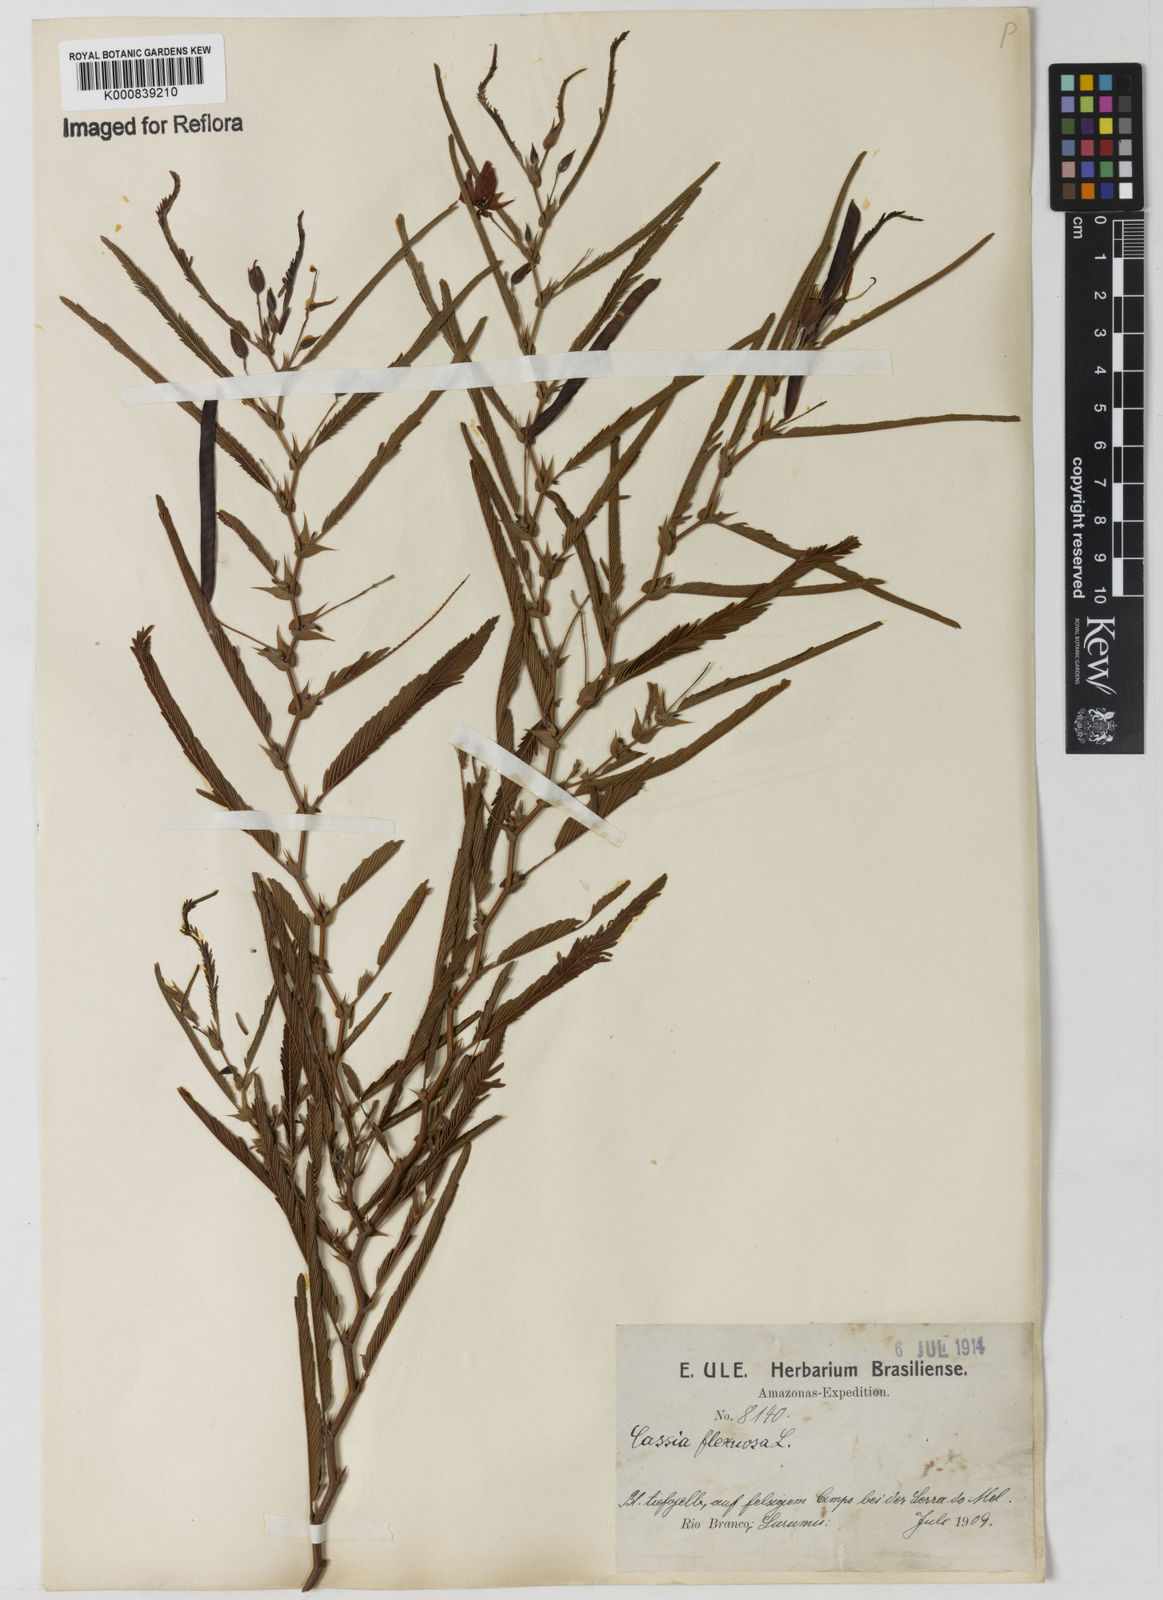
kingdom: Plantae
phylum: Tracheophyta
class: Magnoliopsida
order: Fabales
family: Fabaceae
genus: Chamaecrista
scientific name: Chamaecrista flexuosa
